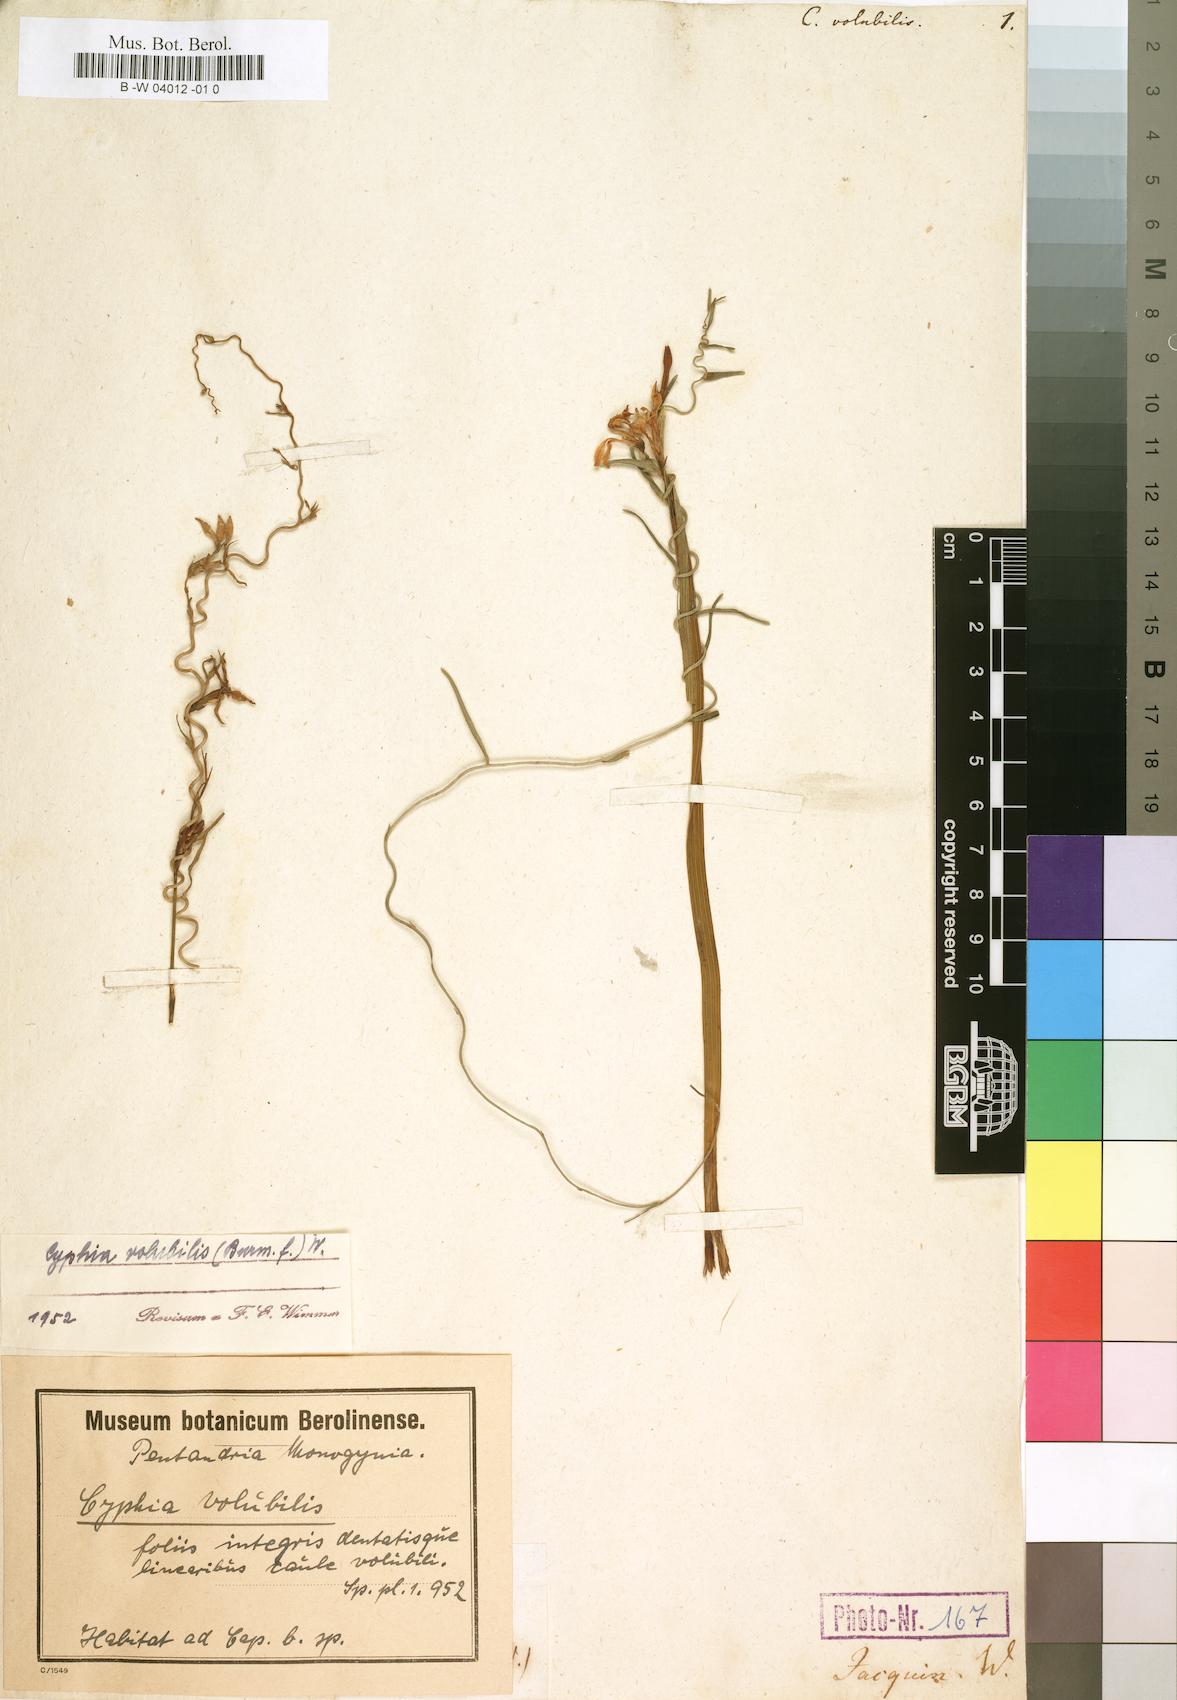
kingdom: Plantae
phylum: Tracheophyta
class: Magnoliopsida
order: Asterales
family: Campanulaceae
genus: Cyphia
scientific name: Cyphia volubilis
